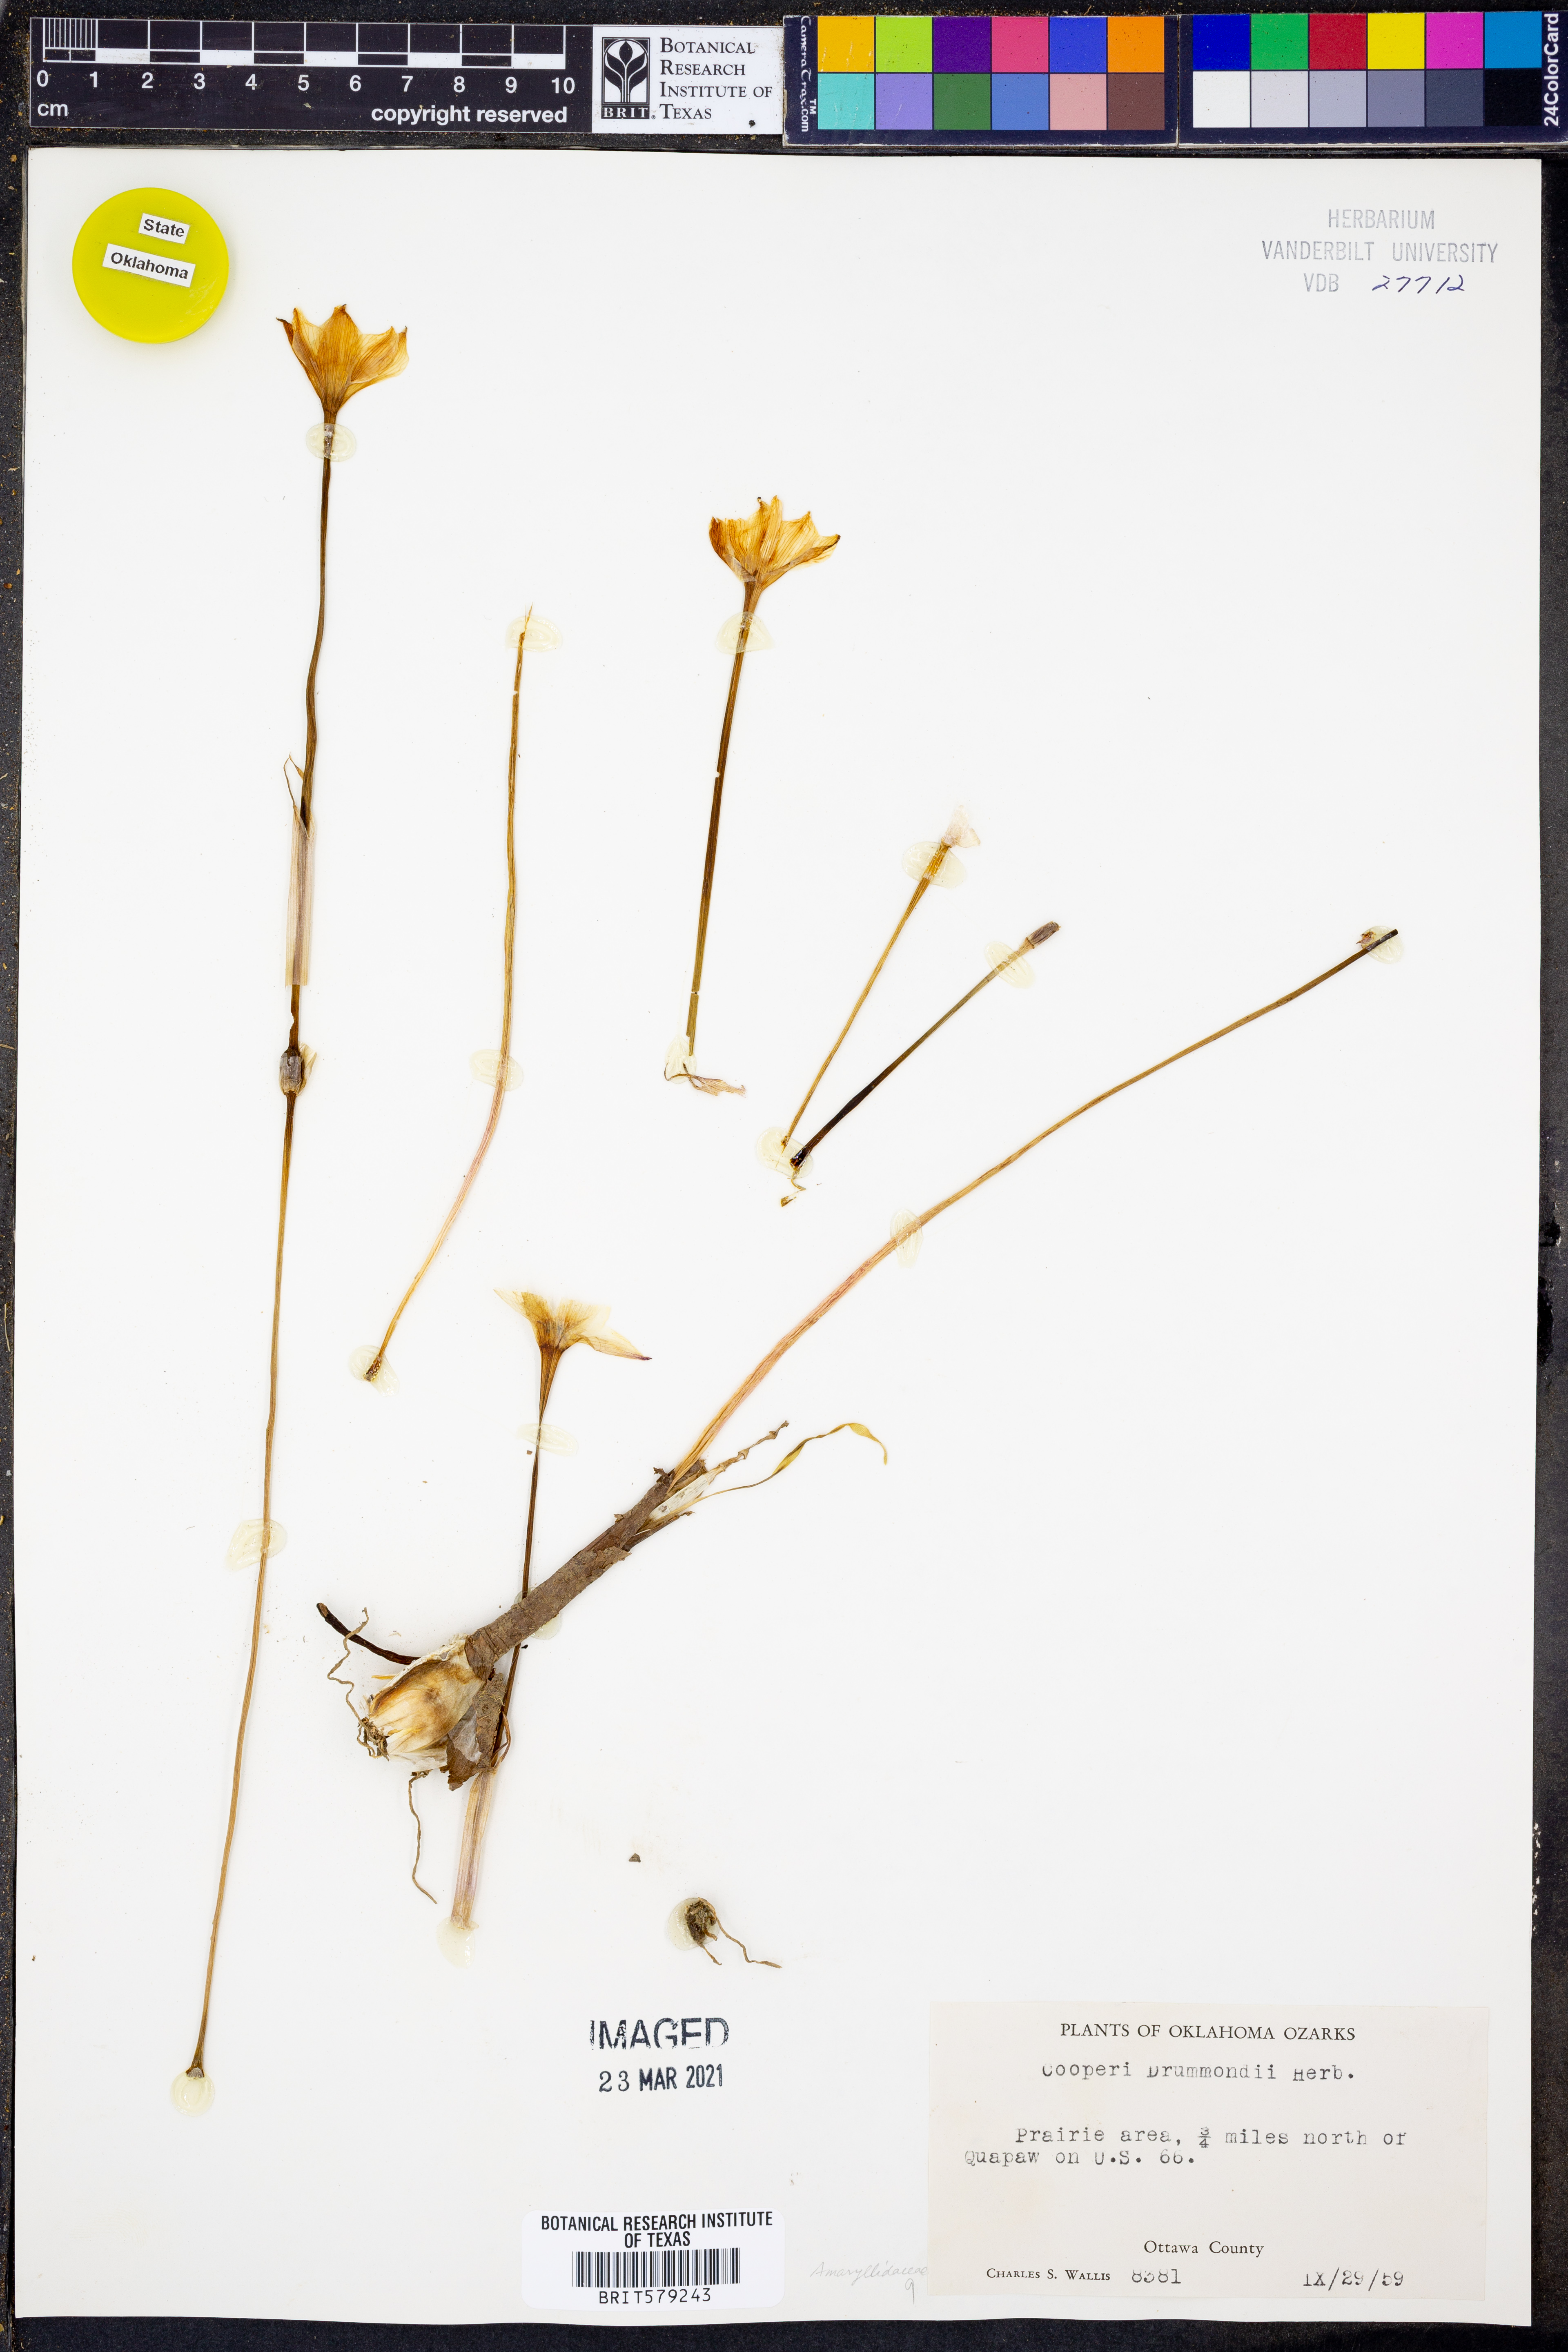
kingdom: Plantae
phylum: Tracheophyta
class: Liliopsida
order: Asparagales
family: Amaryllidaceae
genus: Zephyranthes
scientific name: Zephyranthes chlorosolen
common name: Evening rain-lily
